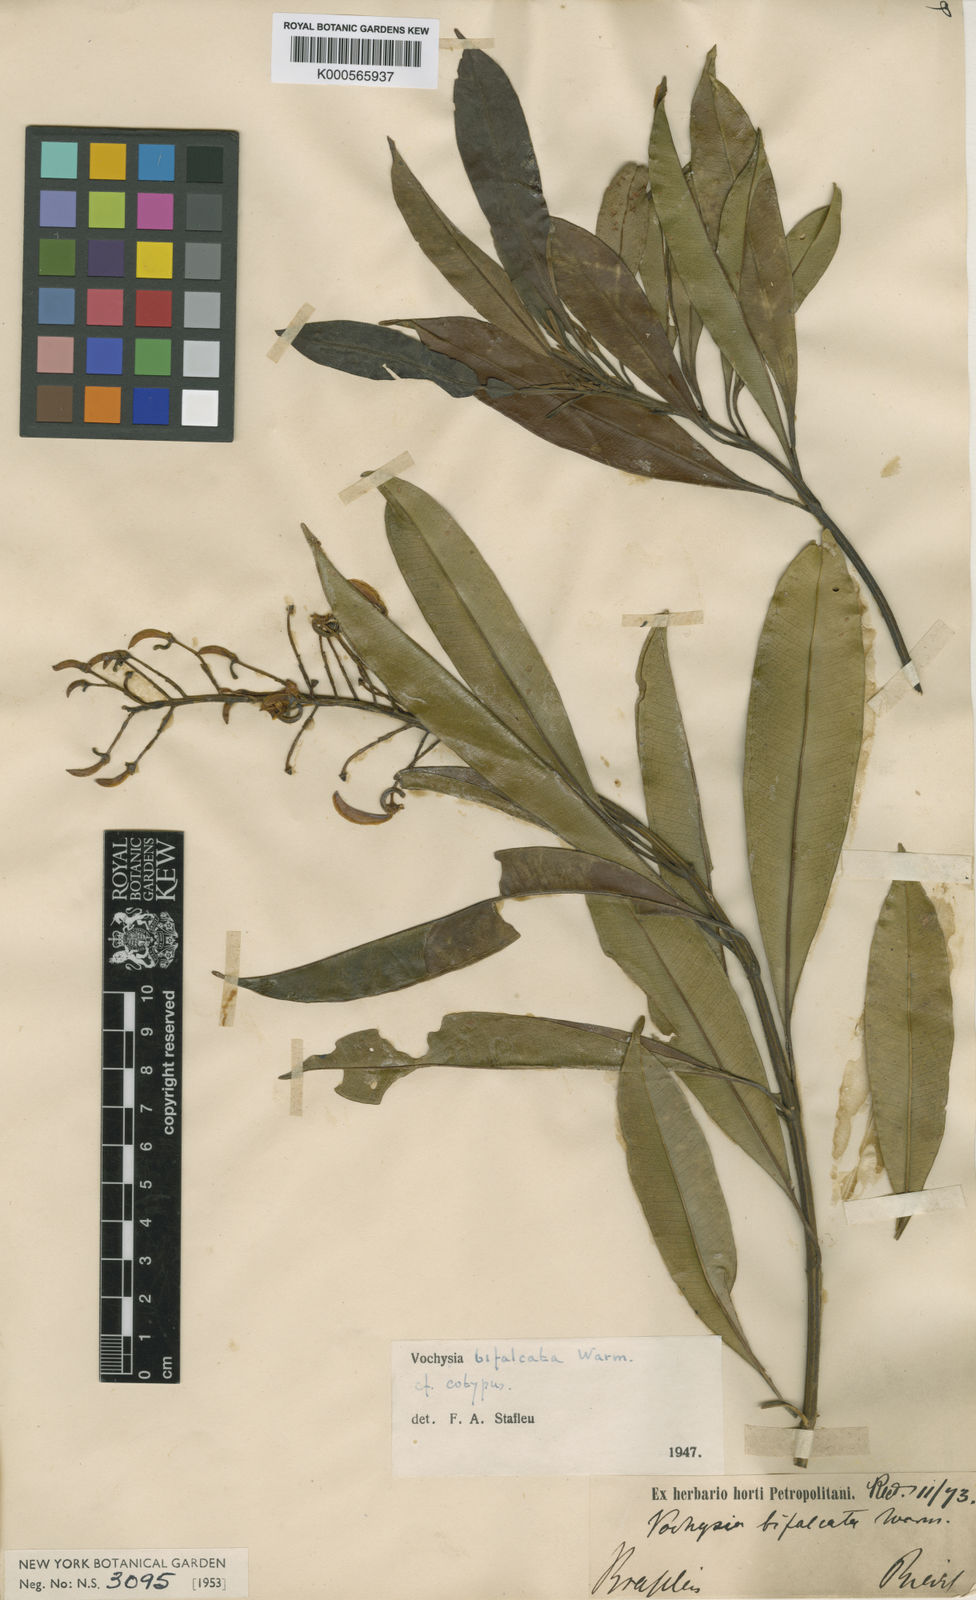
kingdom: Plantae
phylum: Tracheophyta
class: Magnoliopsida
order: Myrtales
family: Vochysiaceae
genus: Vochysia
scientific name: Vochysia bifalcata
